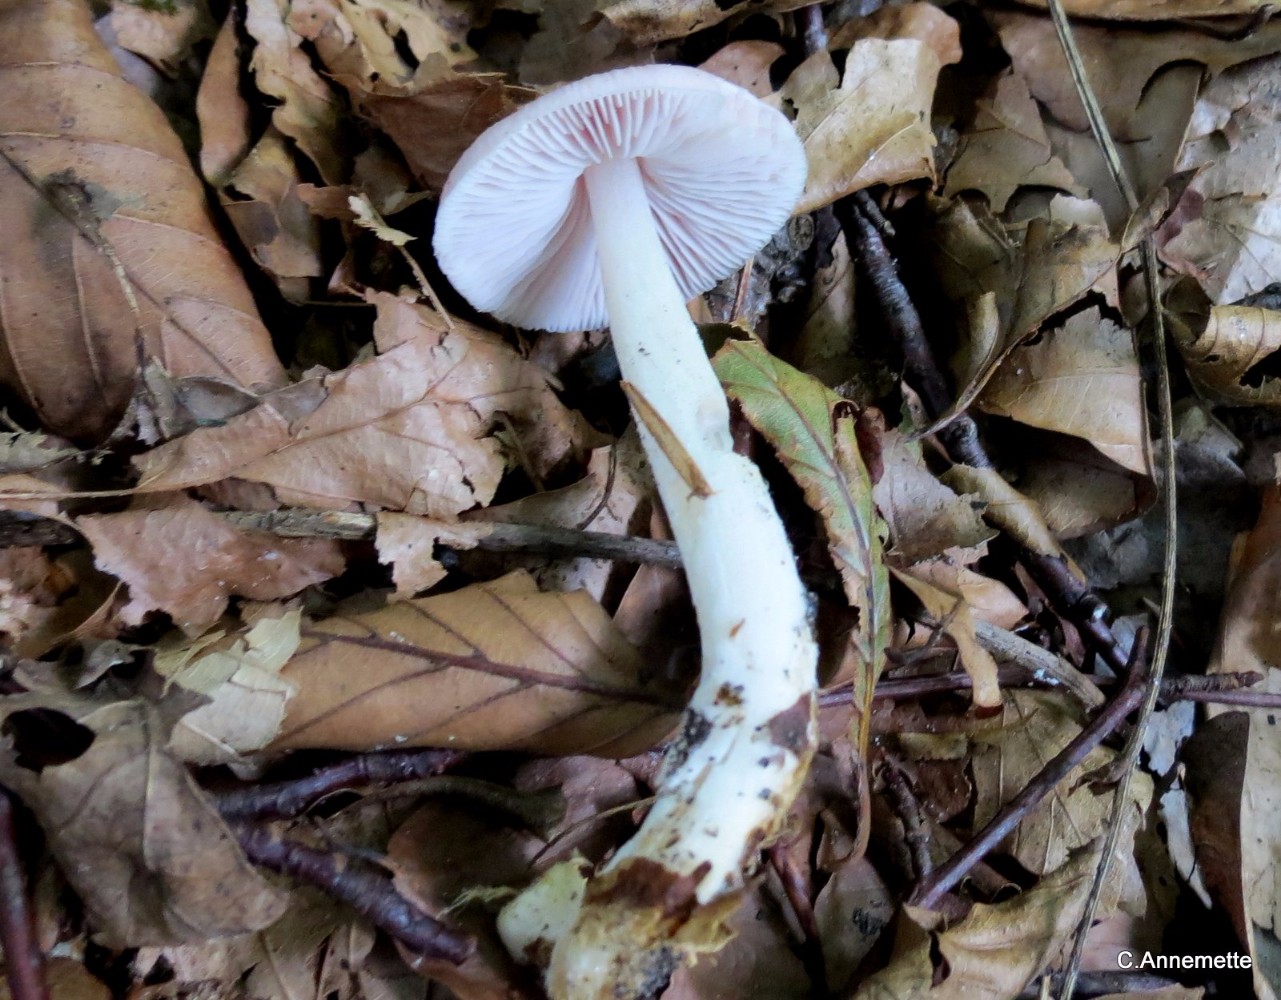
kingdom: Fungi
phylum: Basidiomycota
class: Agaricomycetes
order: Agaricales
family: Mycenaceae
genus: Mycena
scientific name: Mycena rosea
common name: rosa huesvamp
